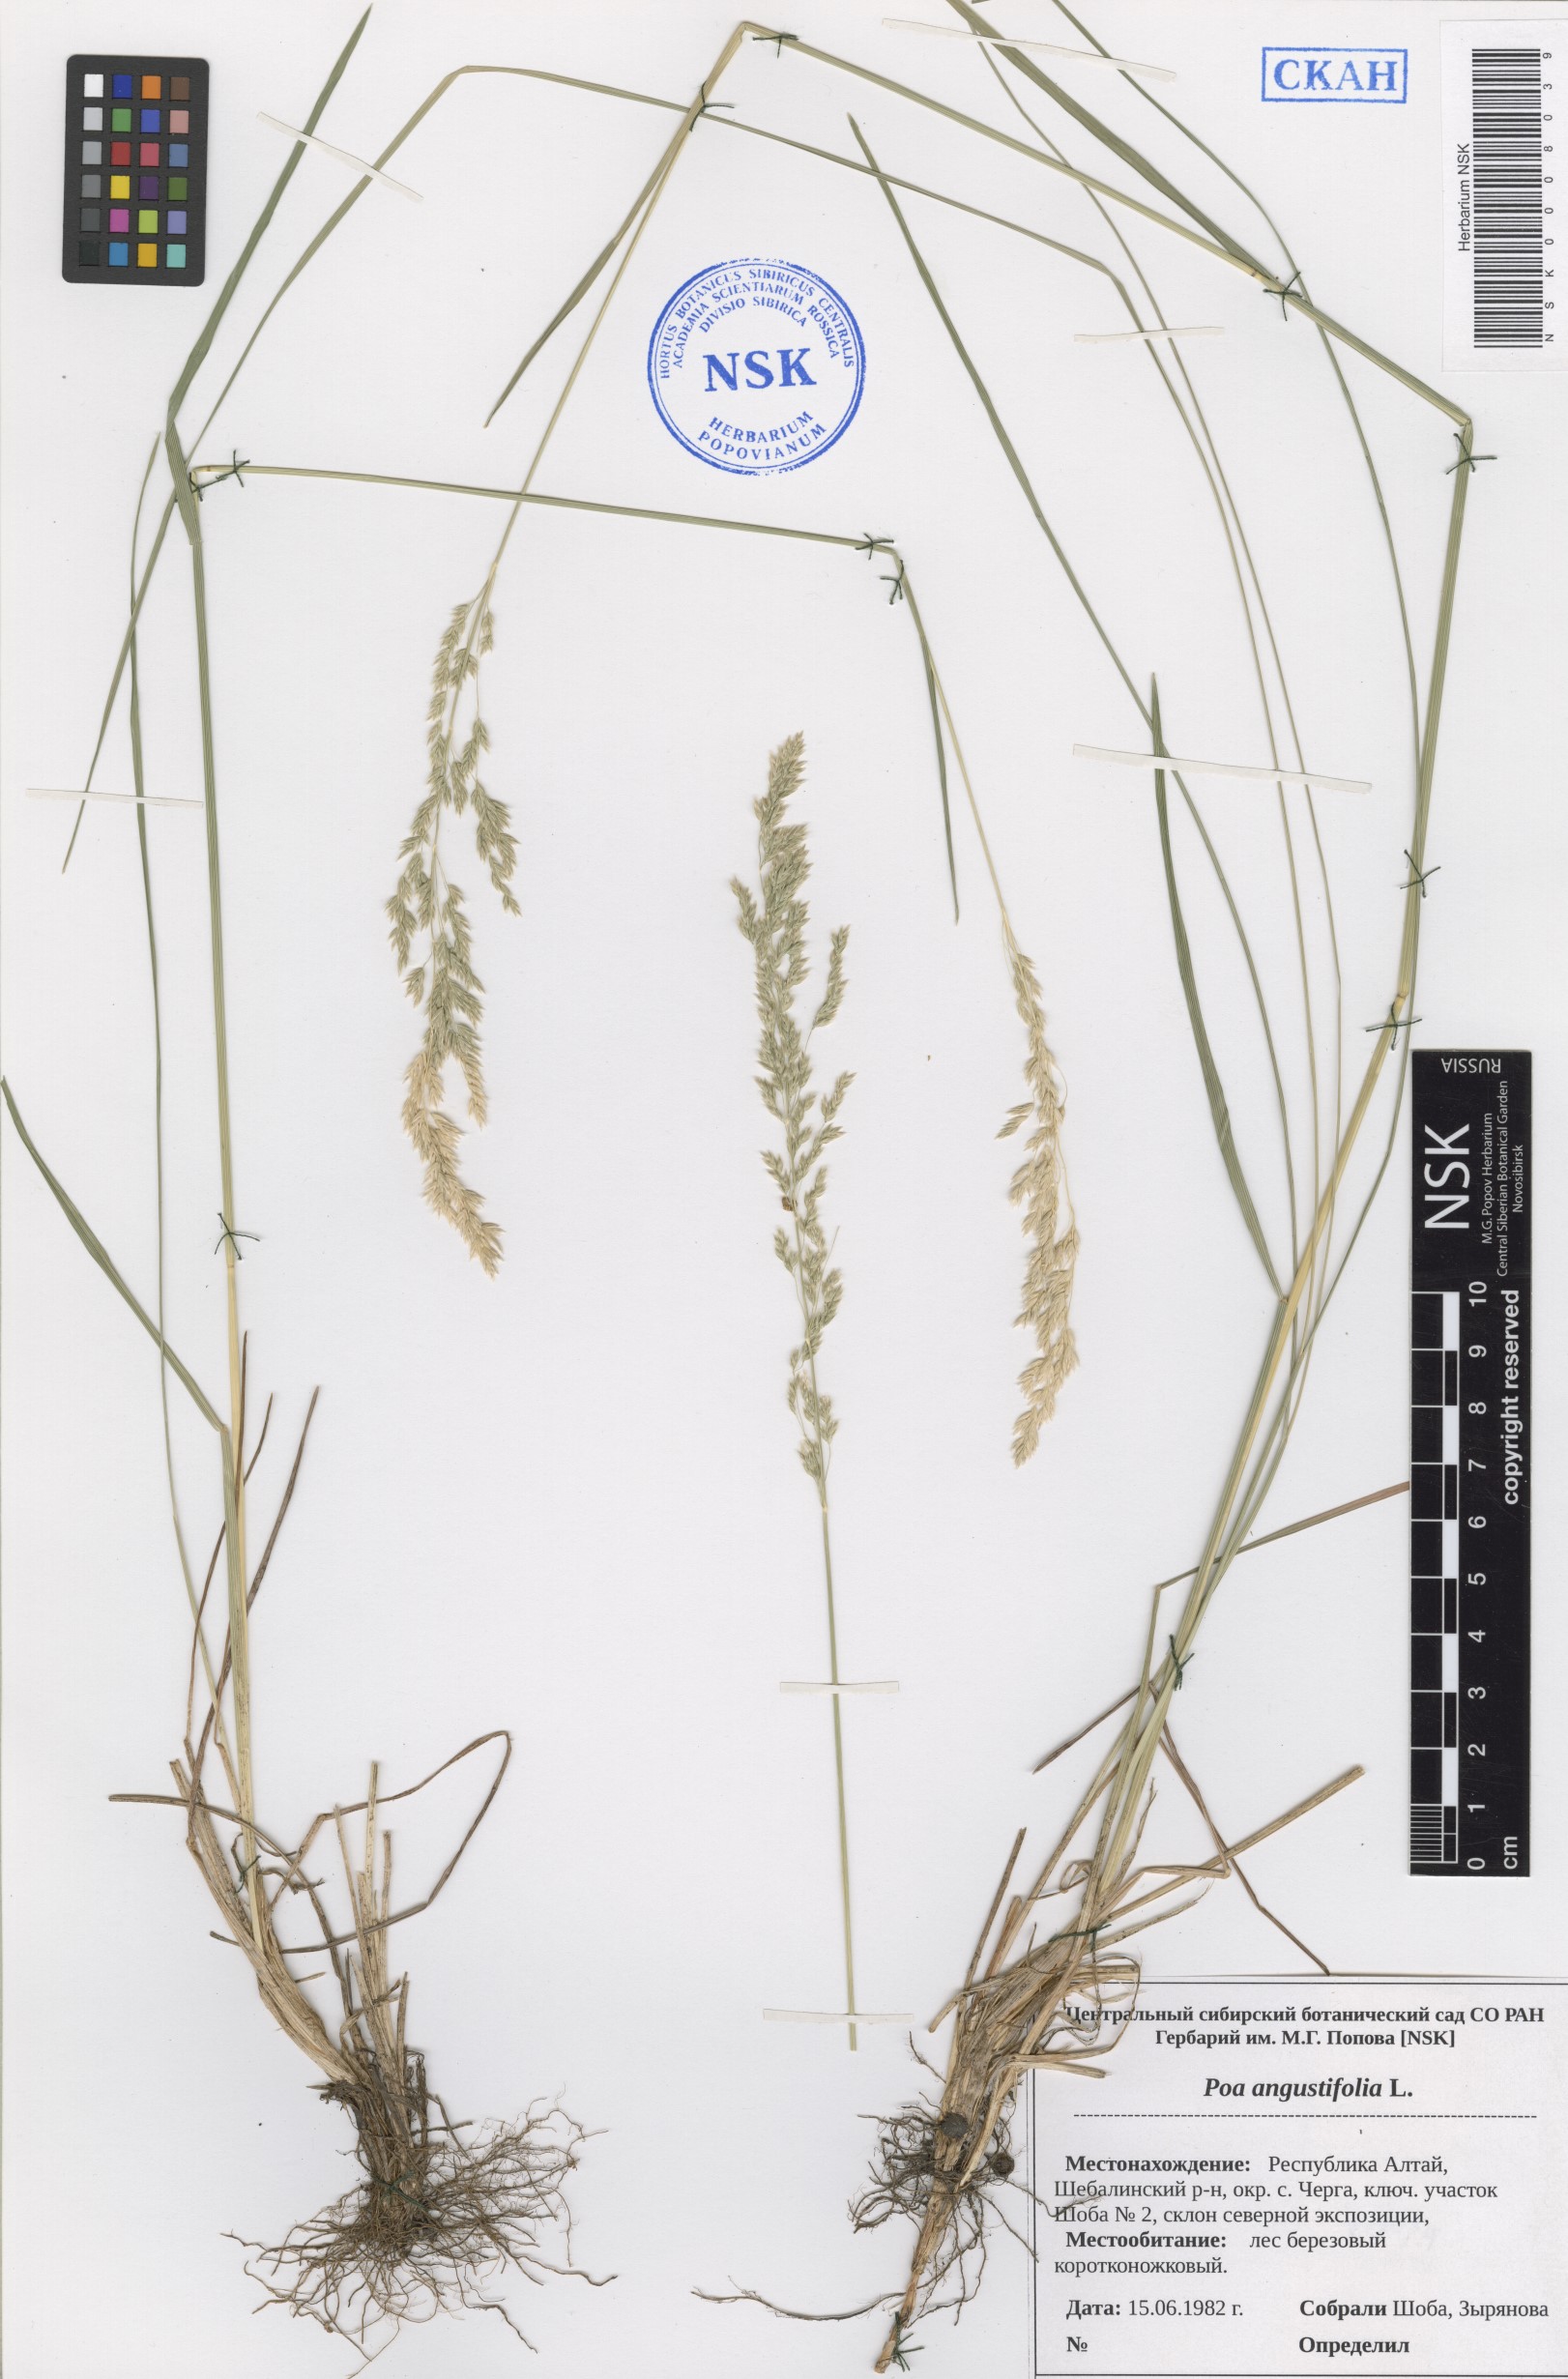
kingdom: Plantae
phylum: Tracheophyta
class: Liliopsida
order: Poales
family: Poaceae
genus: Poa
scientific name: Poa angustifolia
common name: Narrow-leaved meadow-grass
